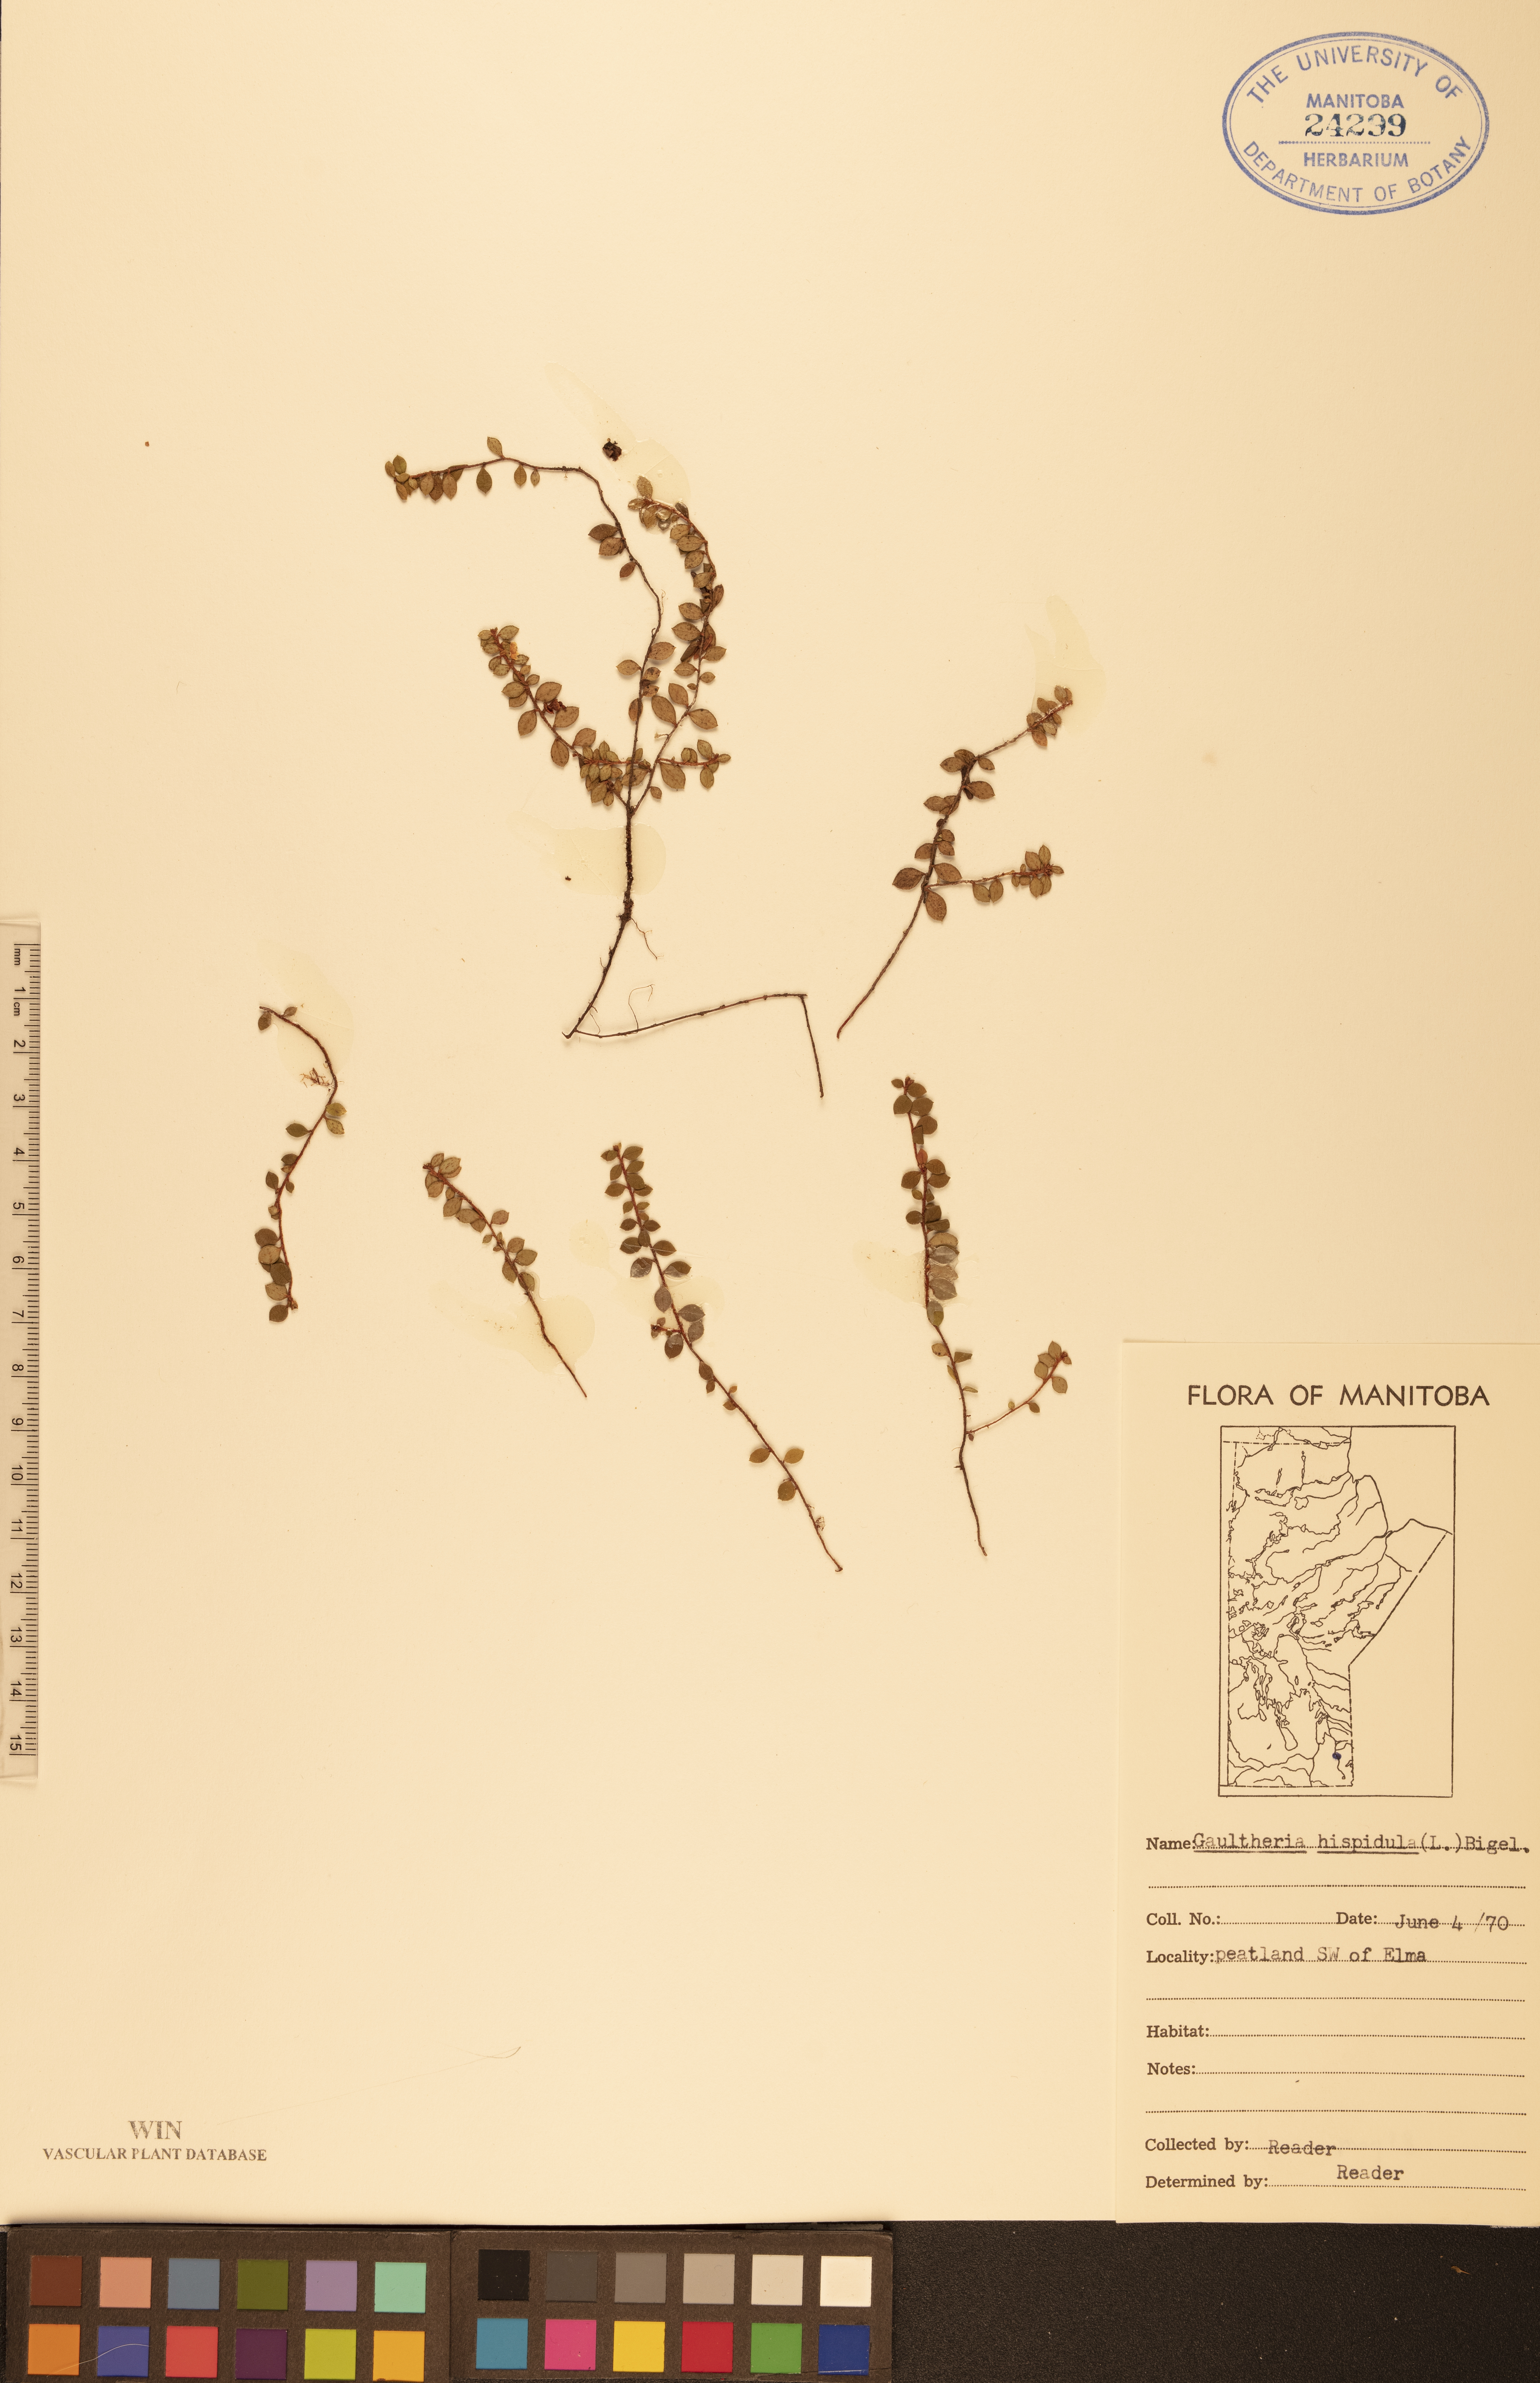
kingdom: Plantae
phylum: Tracheophyta
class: Magnoliopsida
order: Ericales
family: Ericaceae
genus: Gaultheria
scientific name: Gaultheria hispidula
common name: Cancer wintergreen
